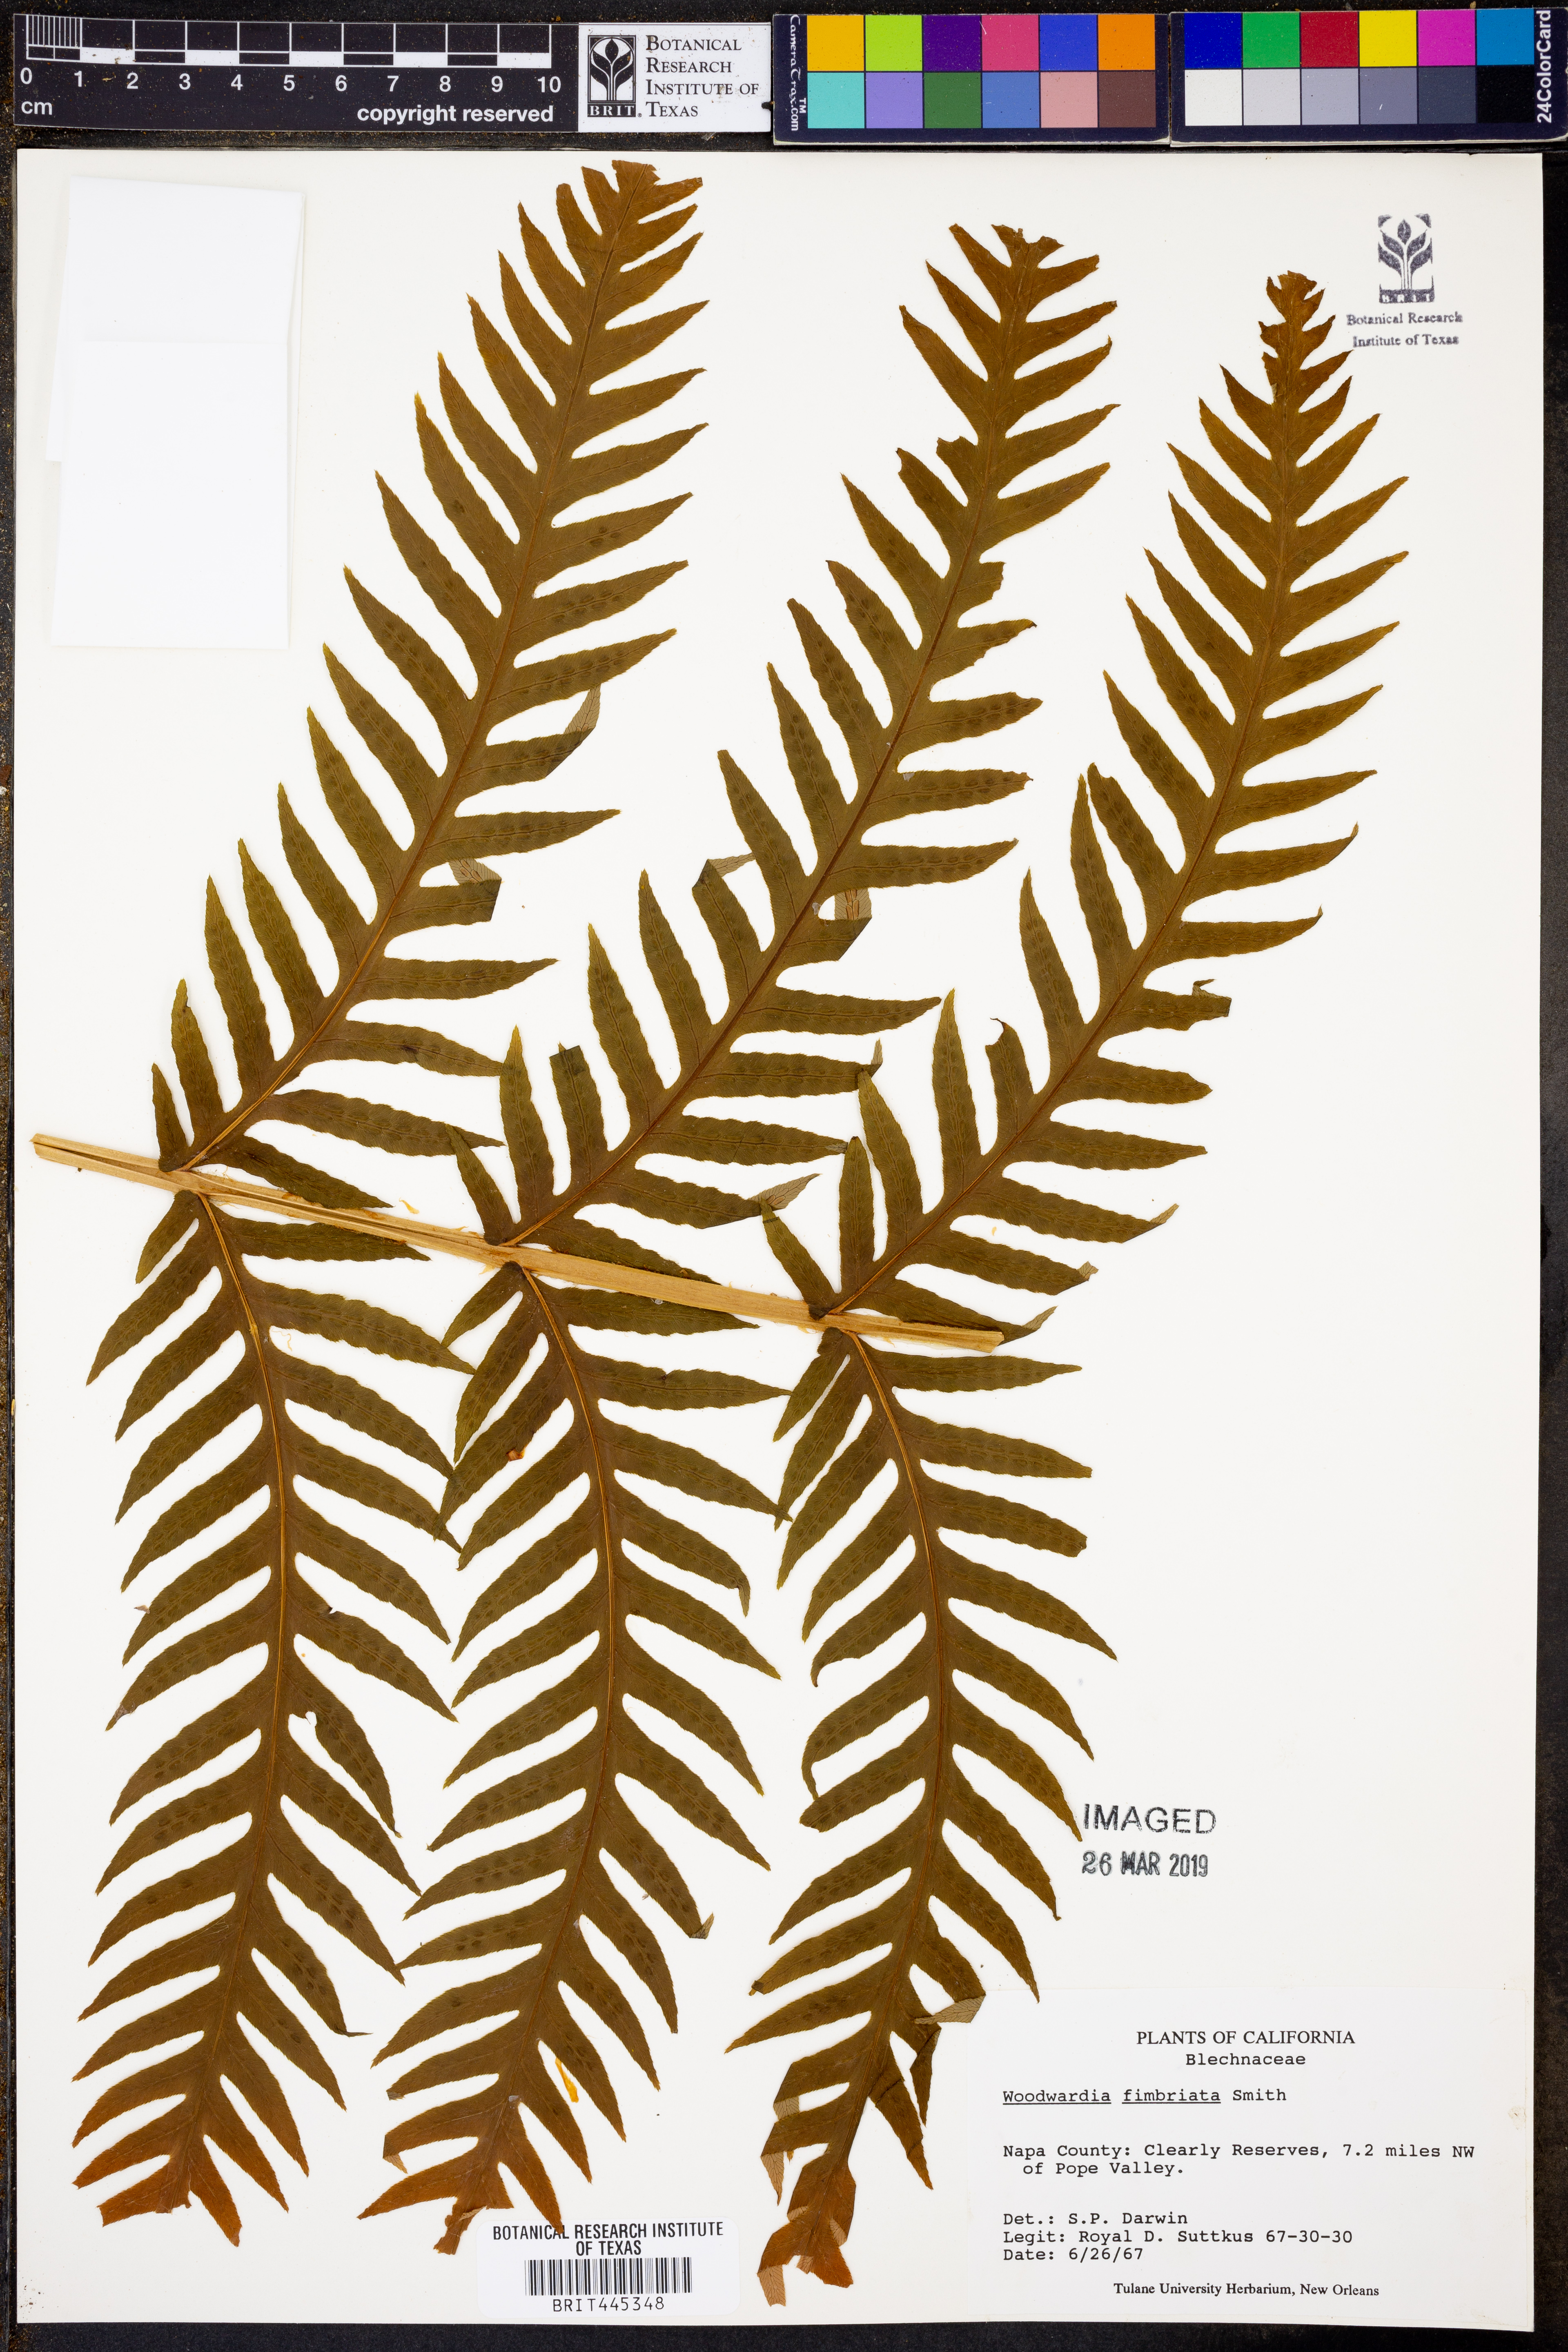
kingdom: Plantae
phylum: Tracheophyta
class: Polypodiopsida
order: Polypodiales
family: Blechnaceae
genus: Woodwardia
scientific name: Woodwardia fimbriata
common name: Giant chain fern
